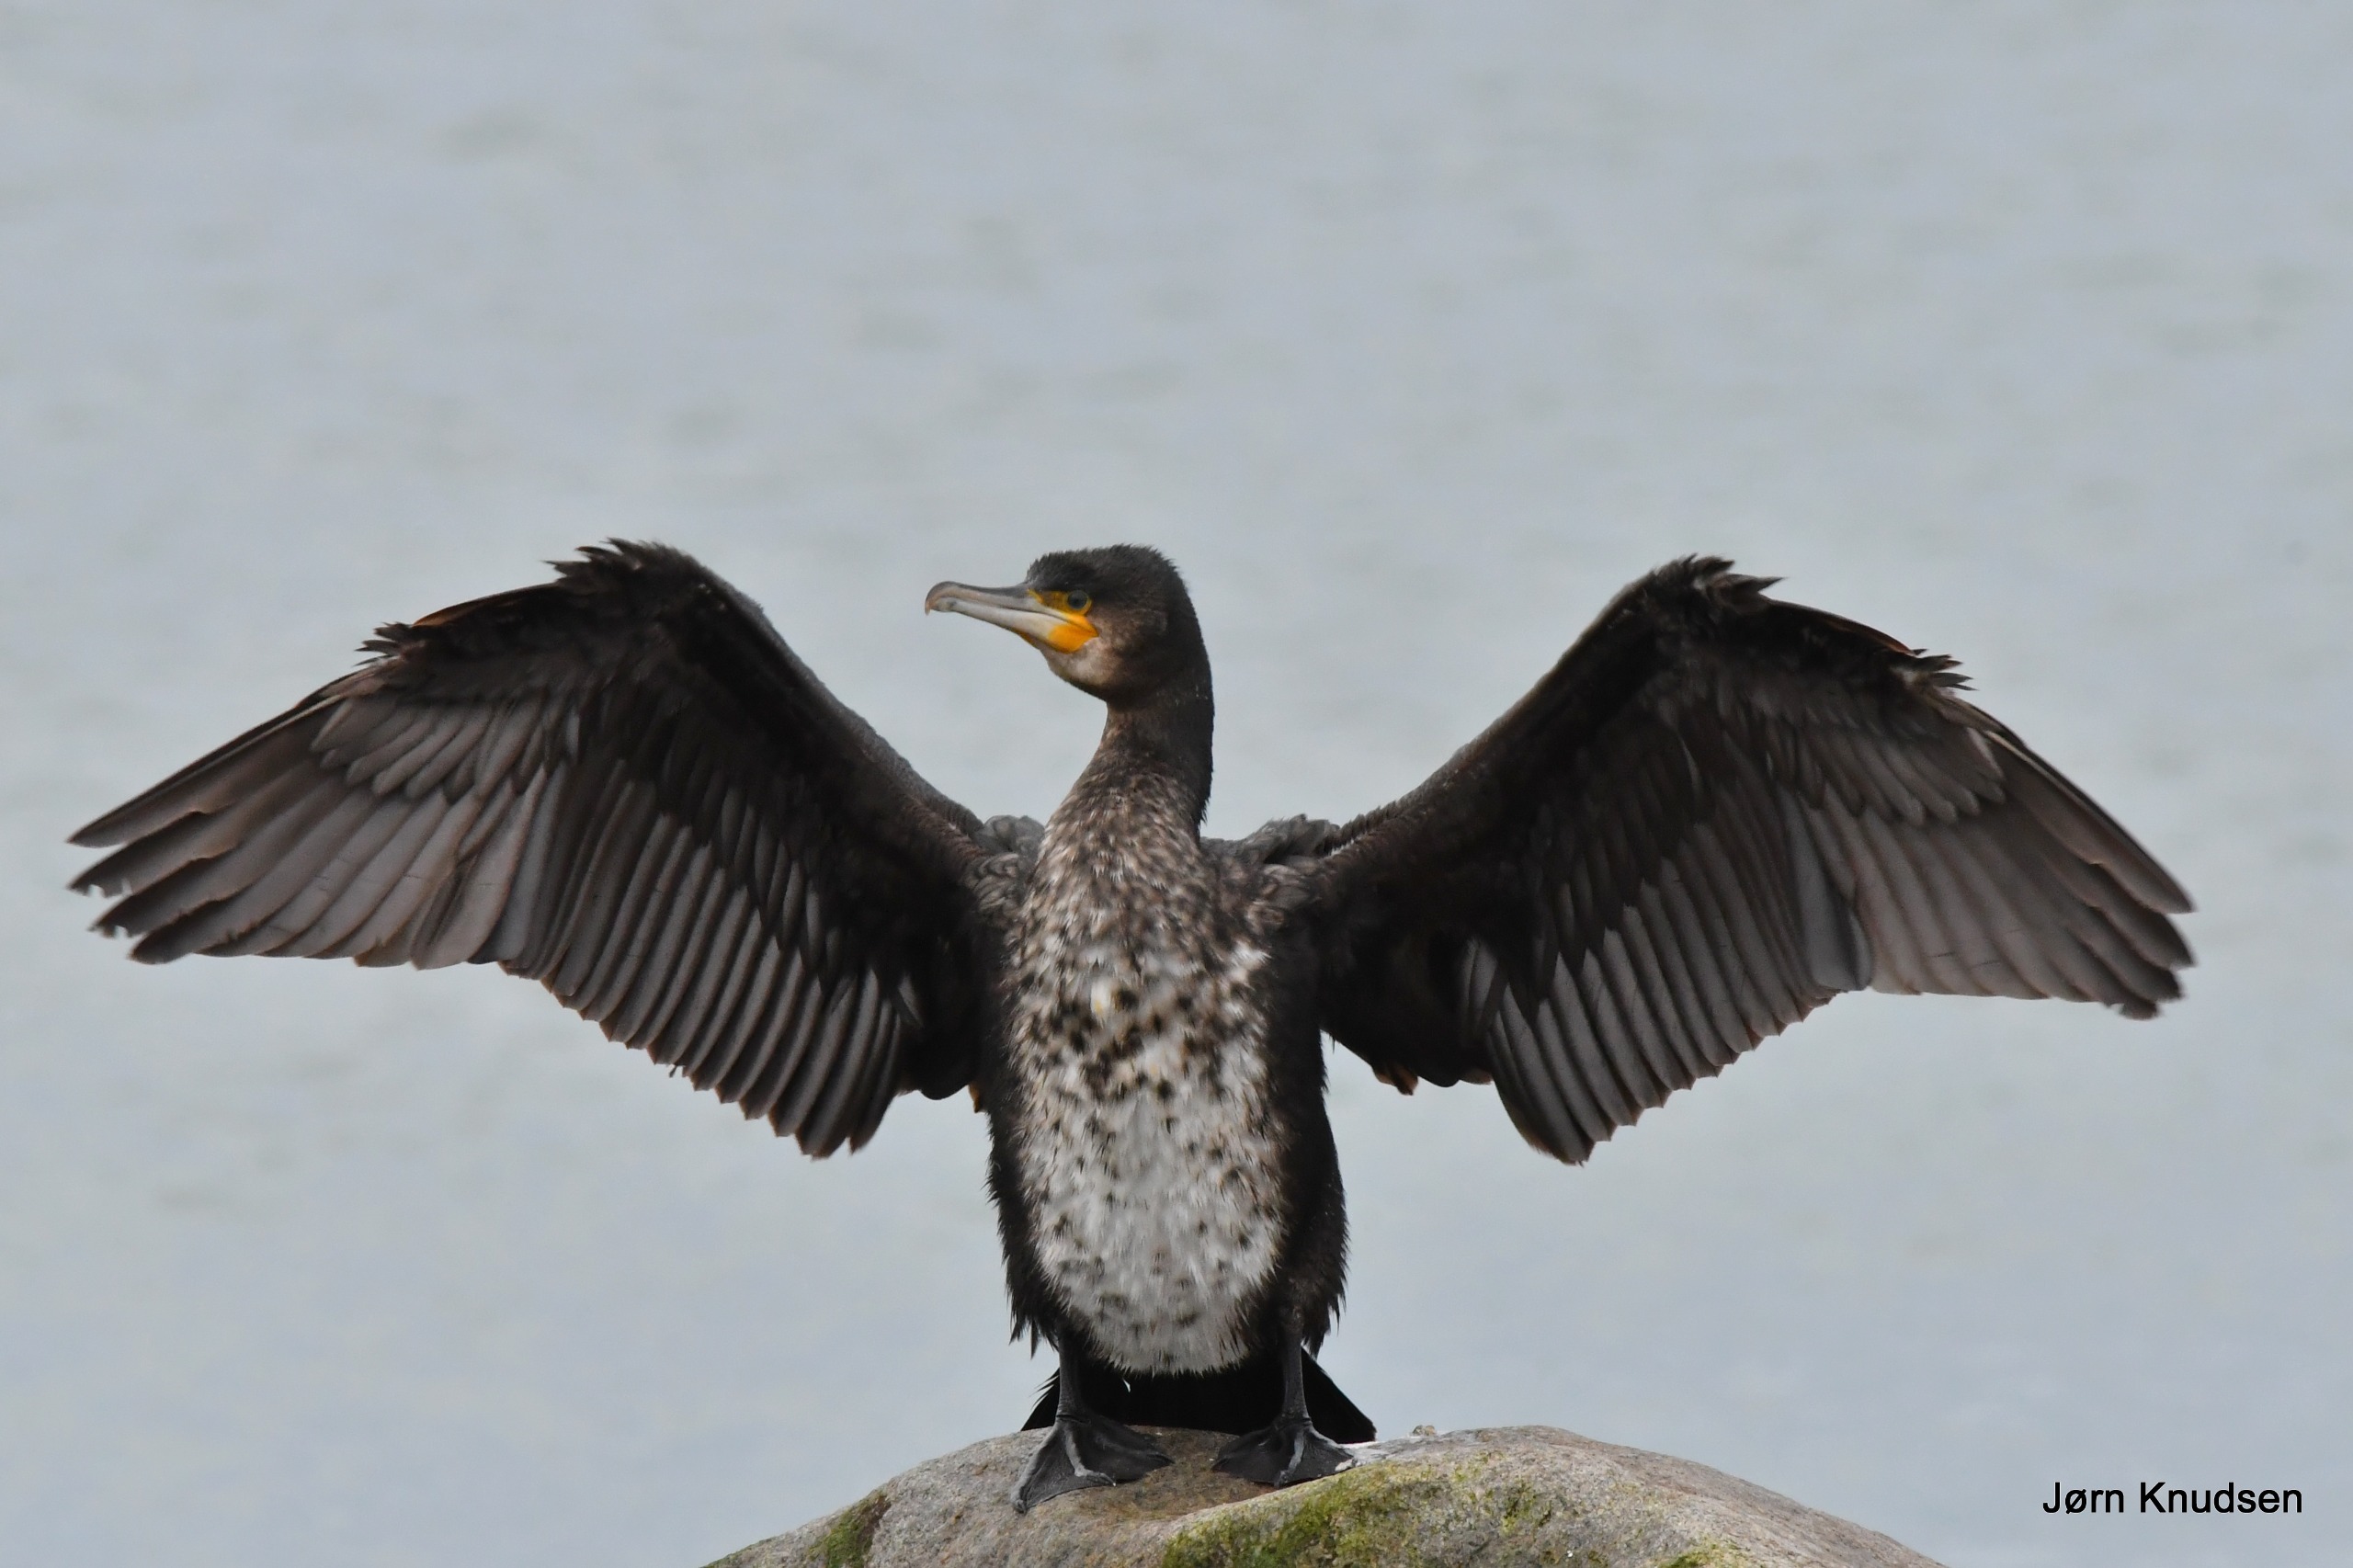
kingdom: Animalia
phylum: Chordata
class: Aves
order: Suliformes
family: Phalacrocoracidae
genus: Phalacrocorax
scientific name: Phalacrocorax carbo
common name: Skarv
